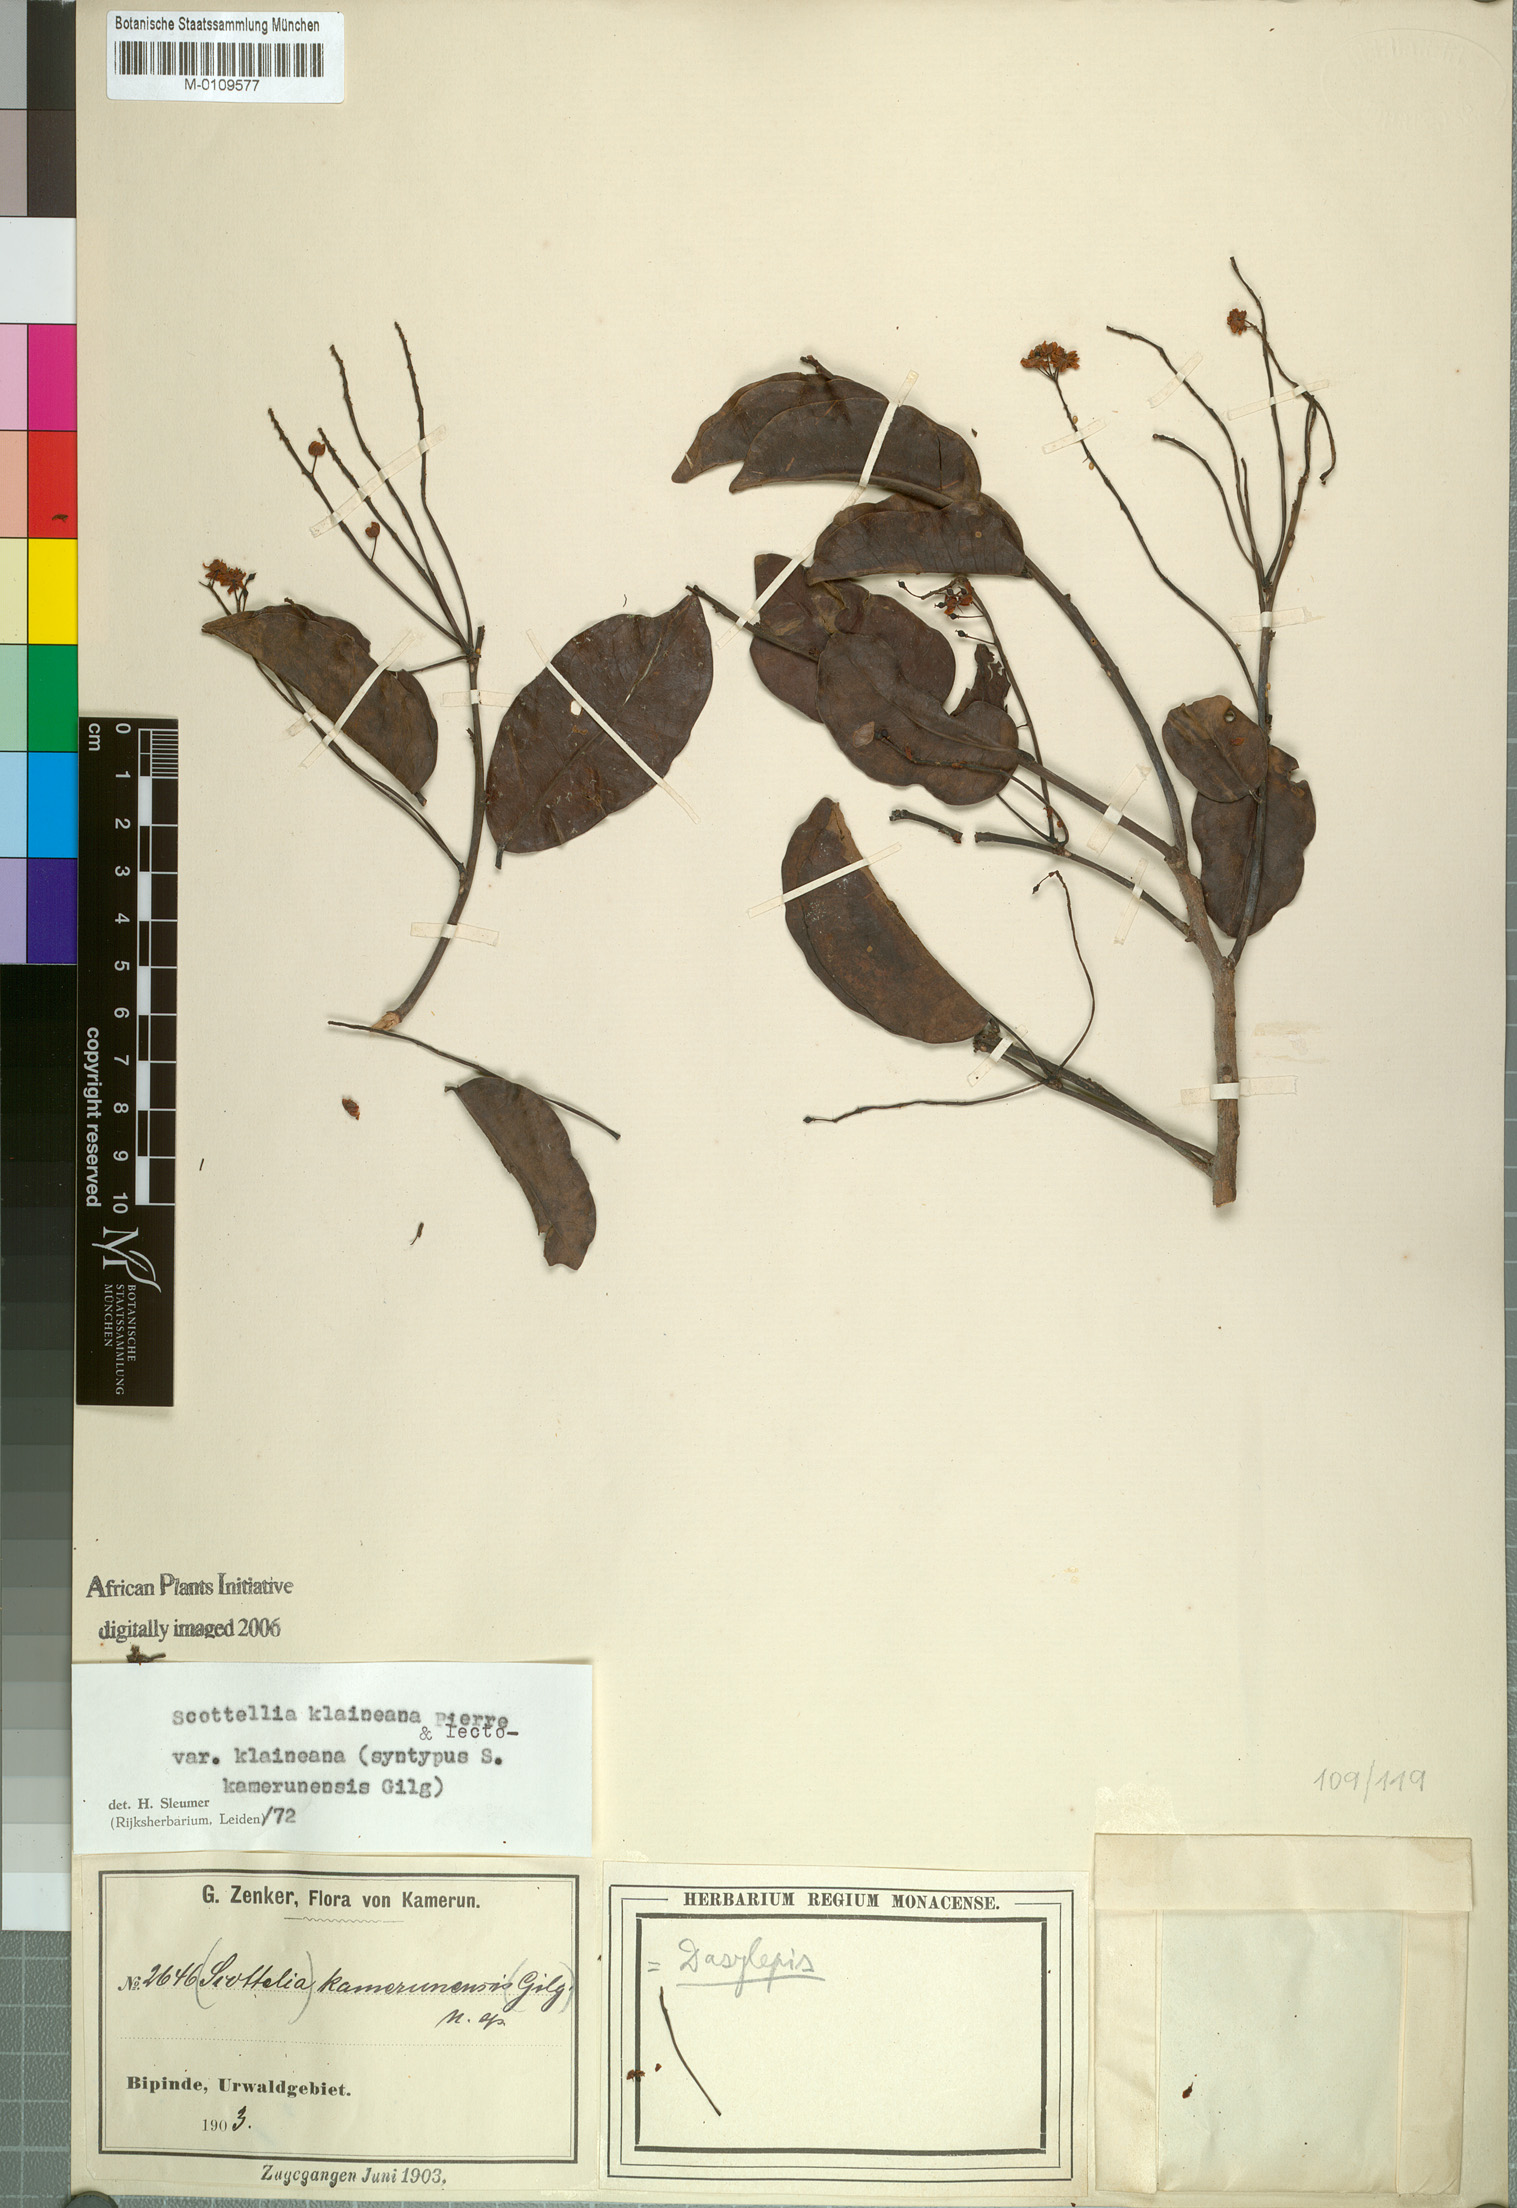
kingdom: Plantae
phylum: Tracheophyta
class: Magnoliopsida
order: Malpighiales
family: Achariaceae
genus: Scottellia
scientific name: Scottellia klaineana
